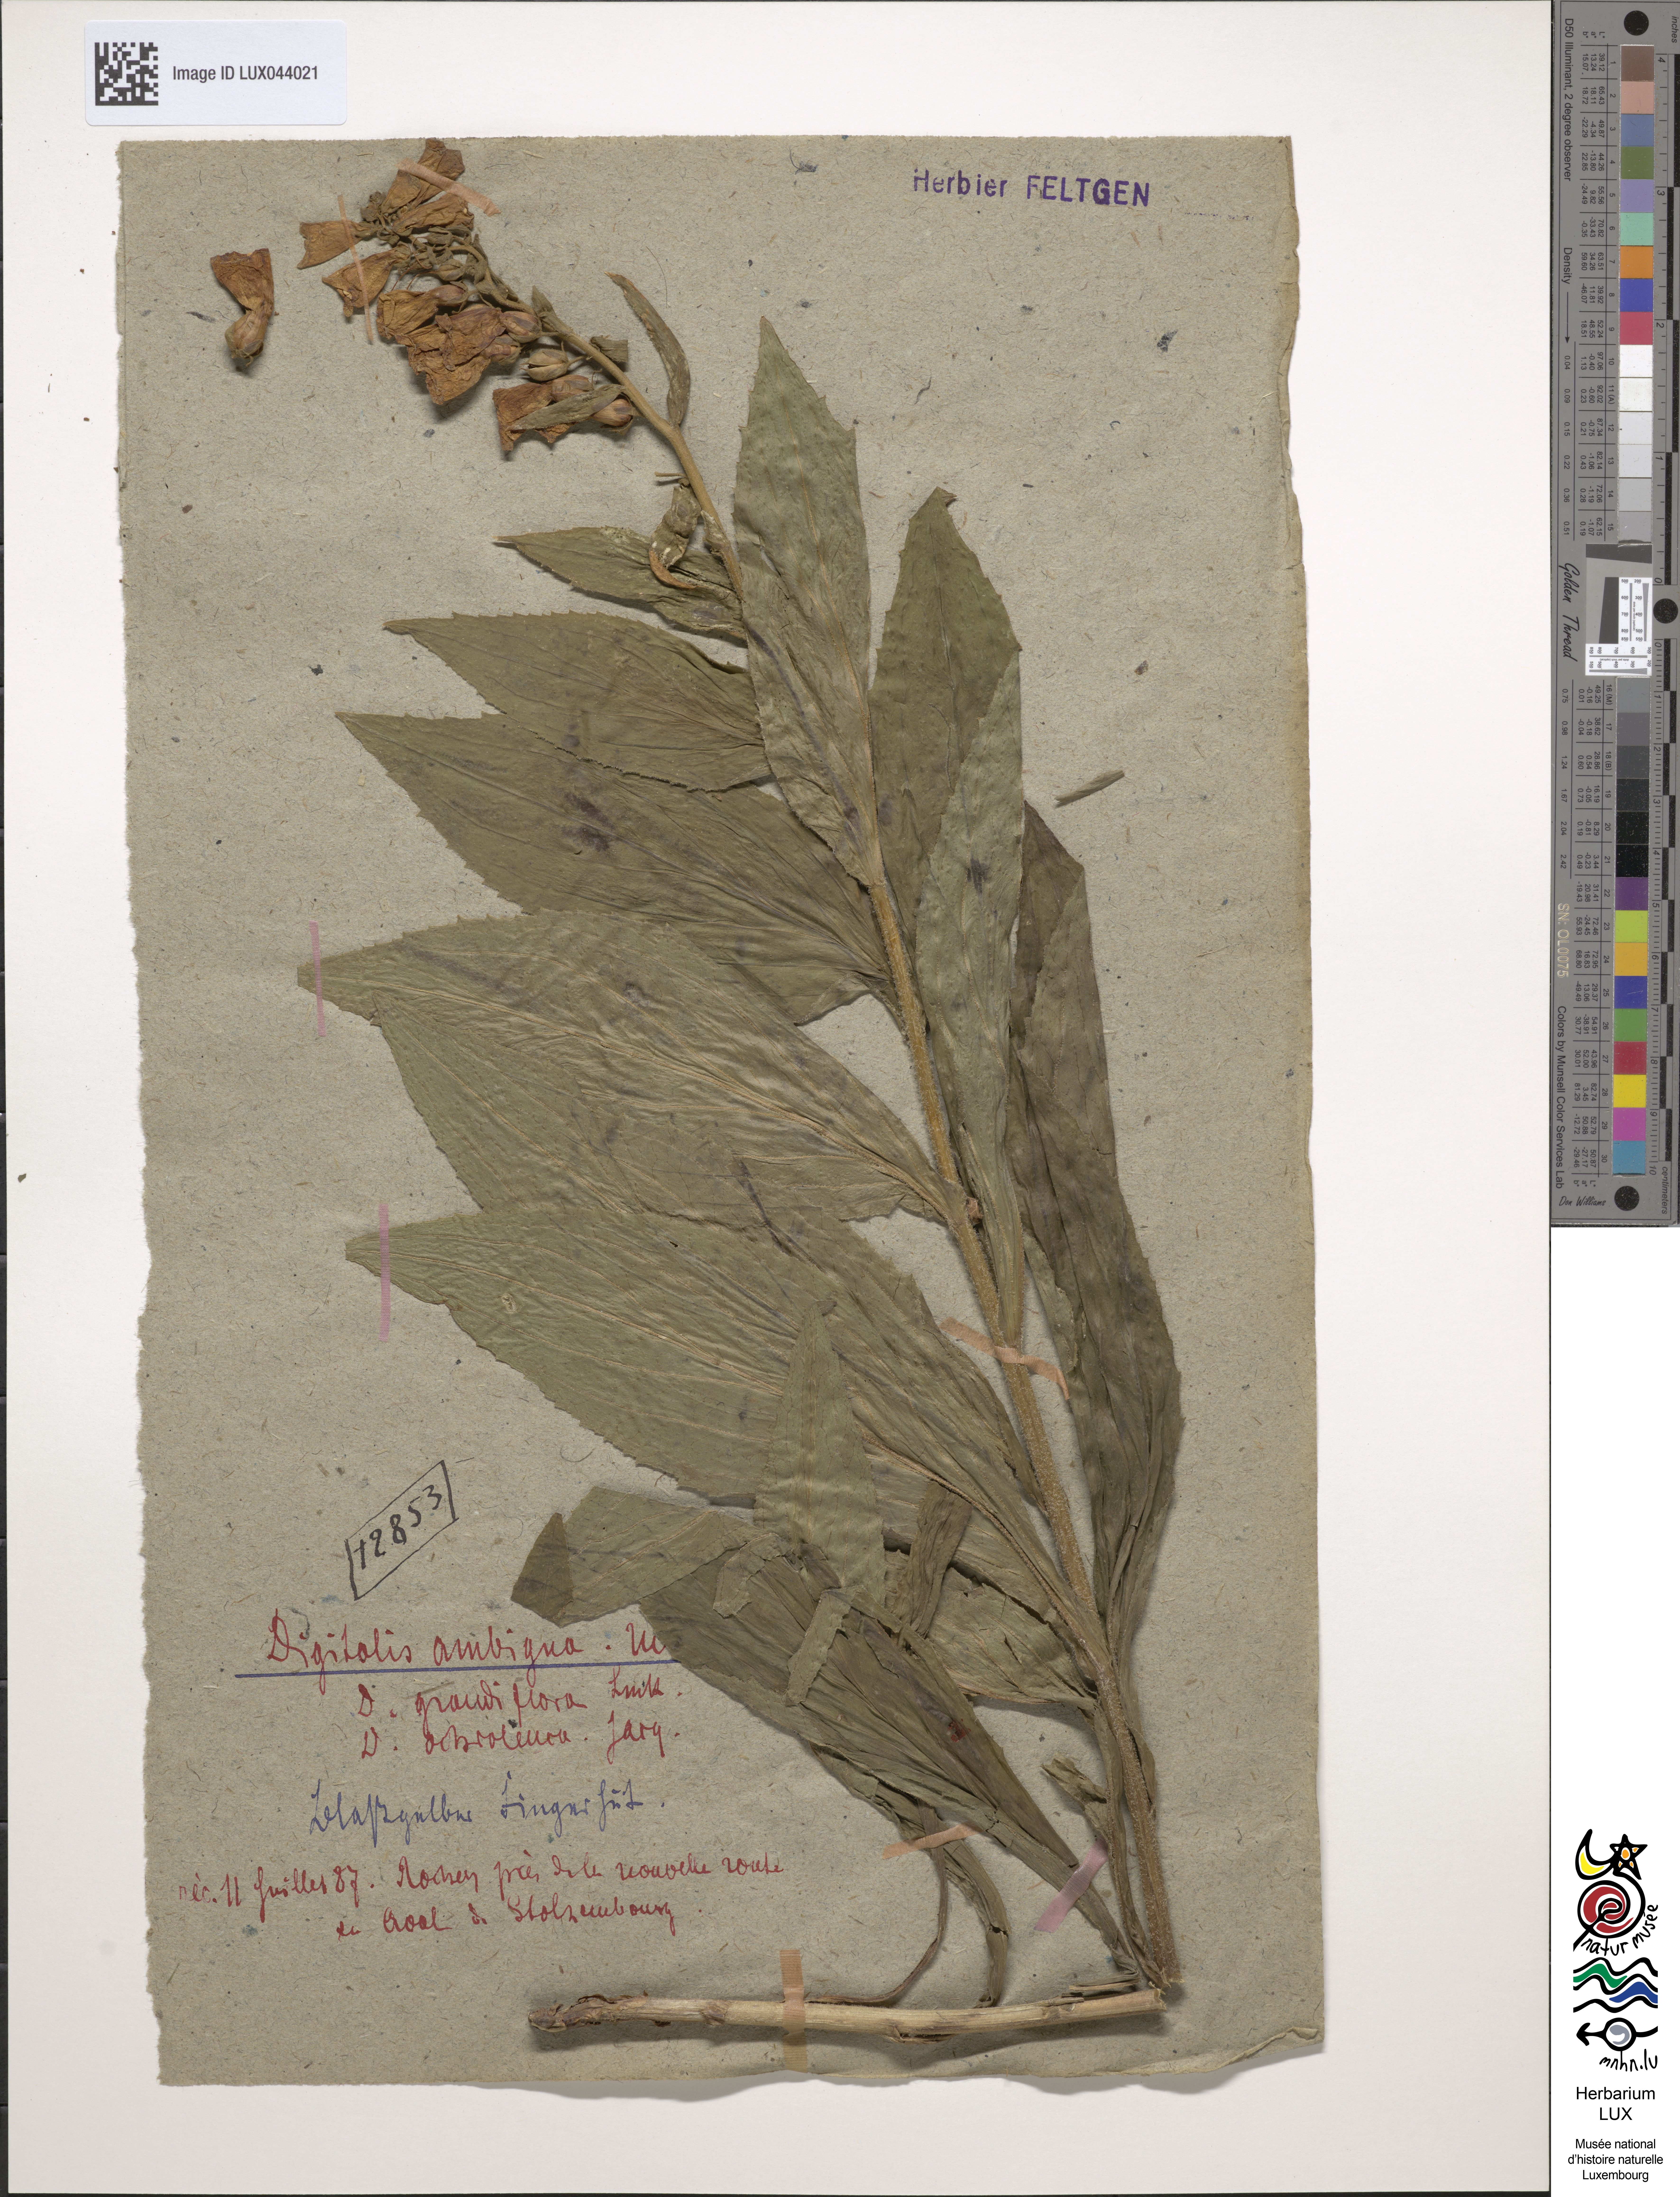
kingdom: Plantae
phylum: Tracheophyta
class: Magnoliopsida
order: Lamiales
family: Plantaginaceae
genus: Digitalis
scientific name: Digitalis grandiflora
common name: Yellow foxglove
